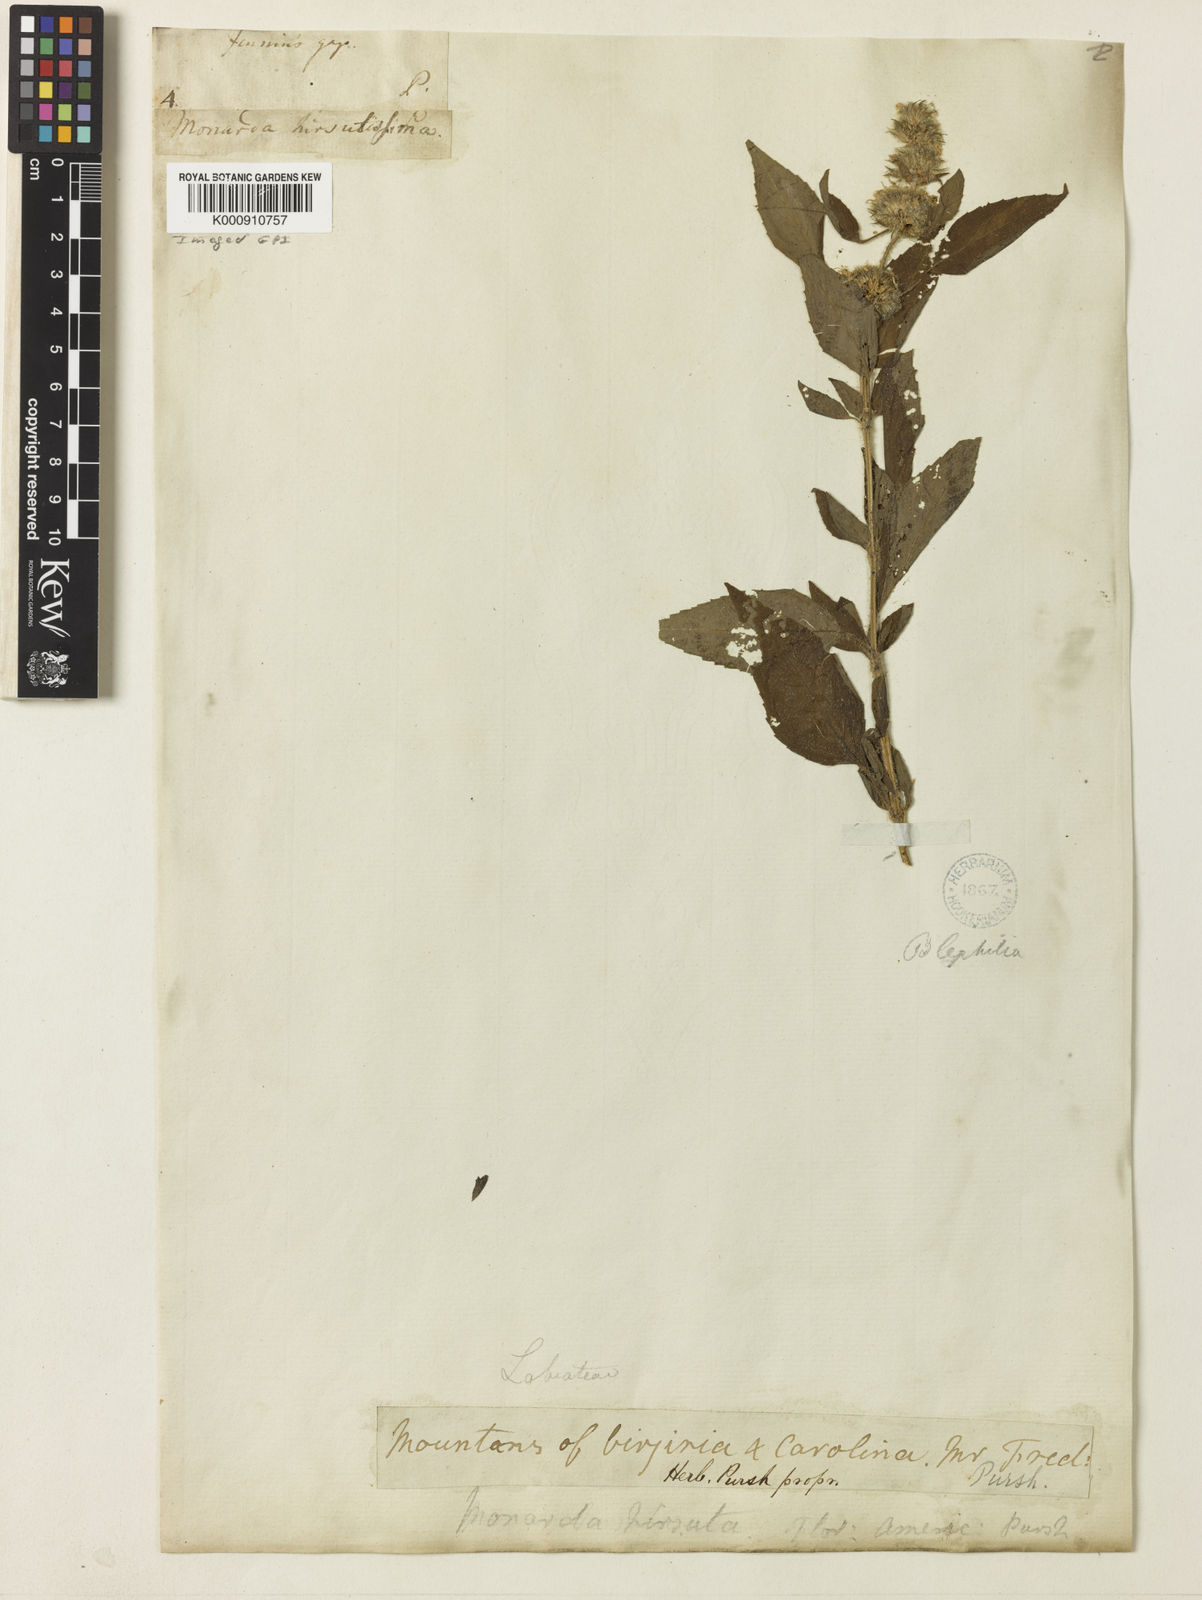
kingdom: Plantae
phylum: Tracheophyta
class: Magnoliopsida
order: Lamiales
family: Lamiaceae
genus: Blephilia
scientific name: Blephilia hirsuta
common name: Hairy blephilia
